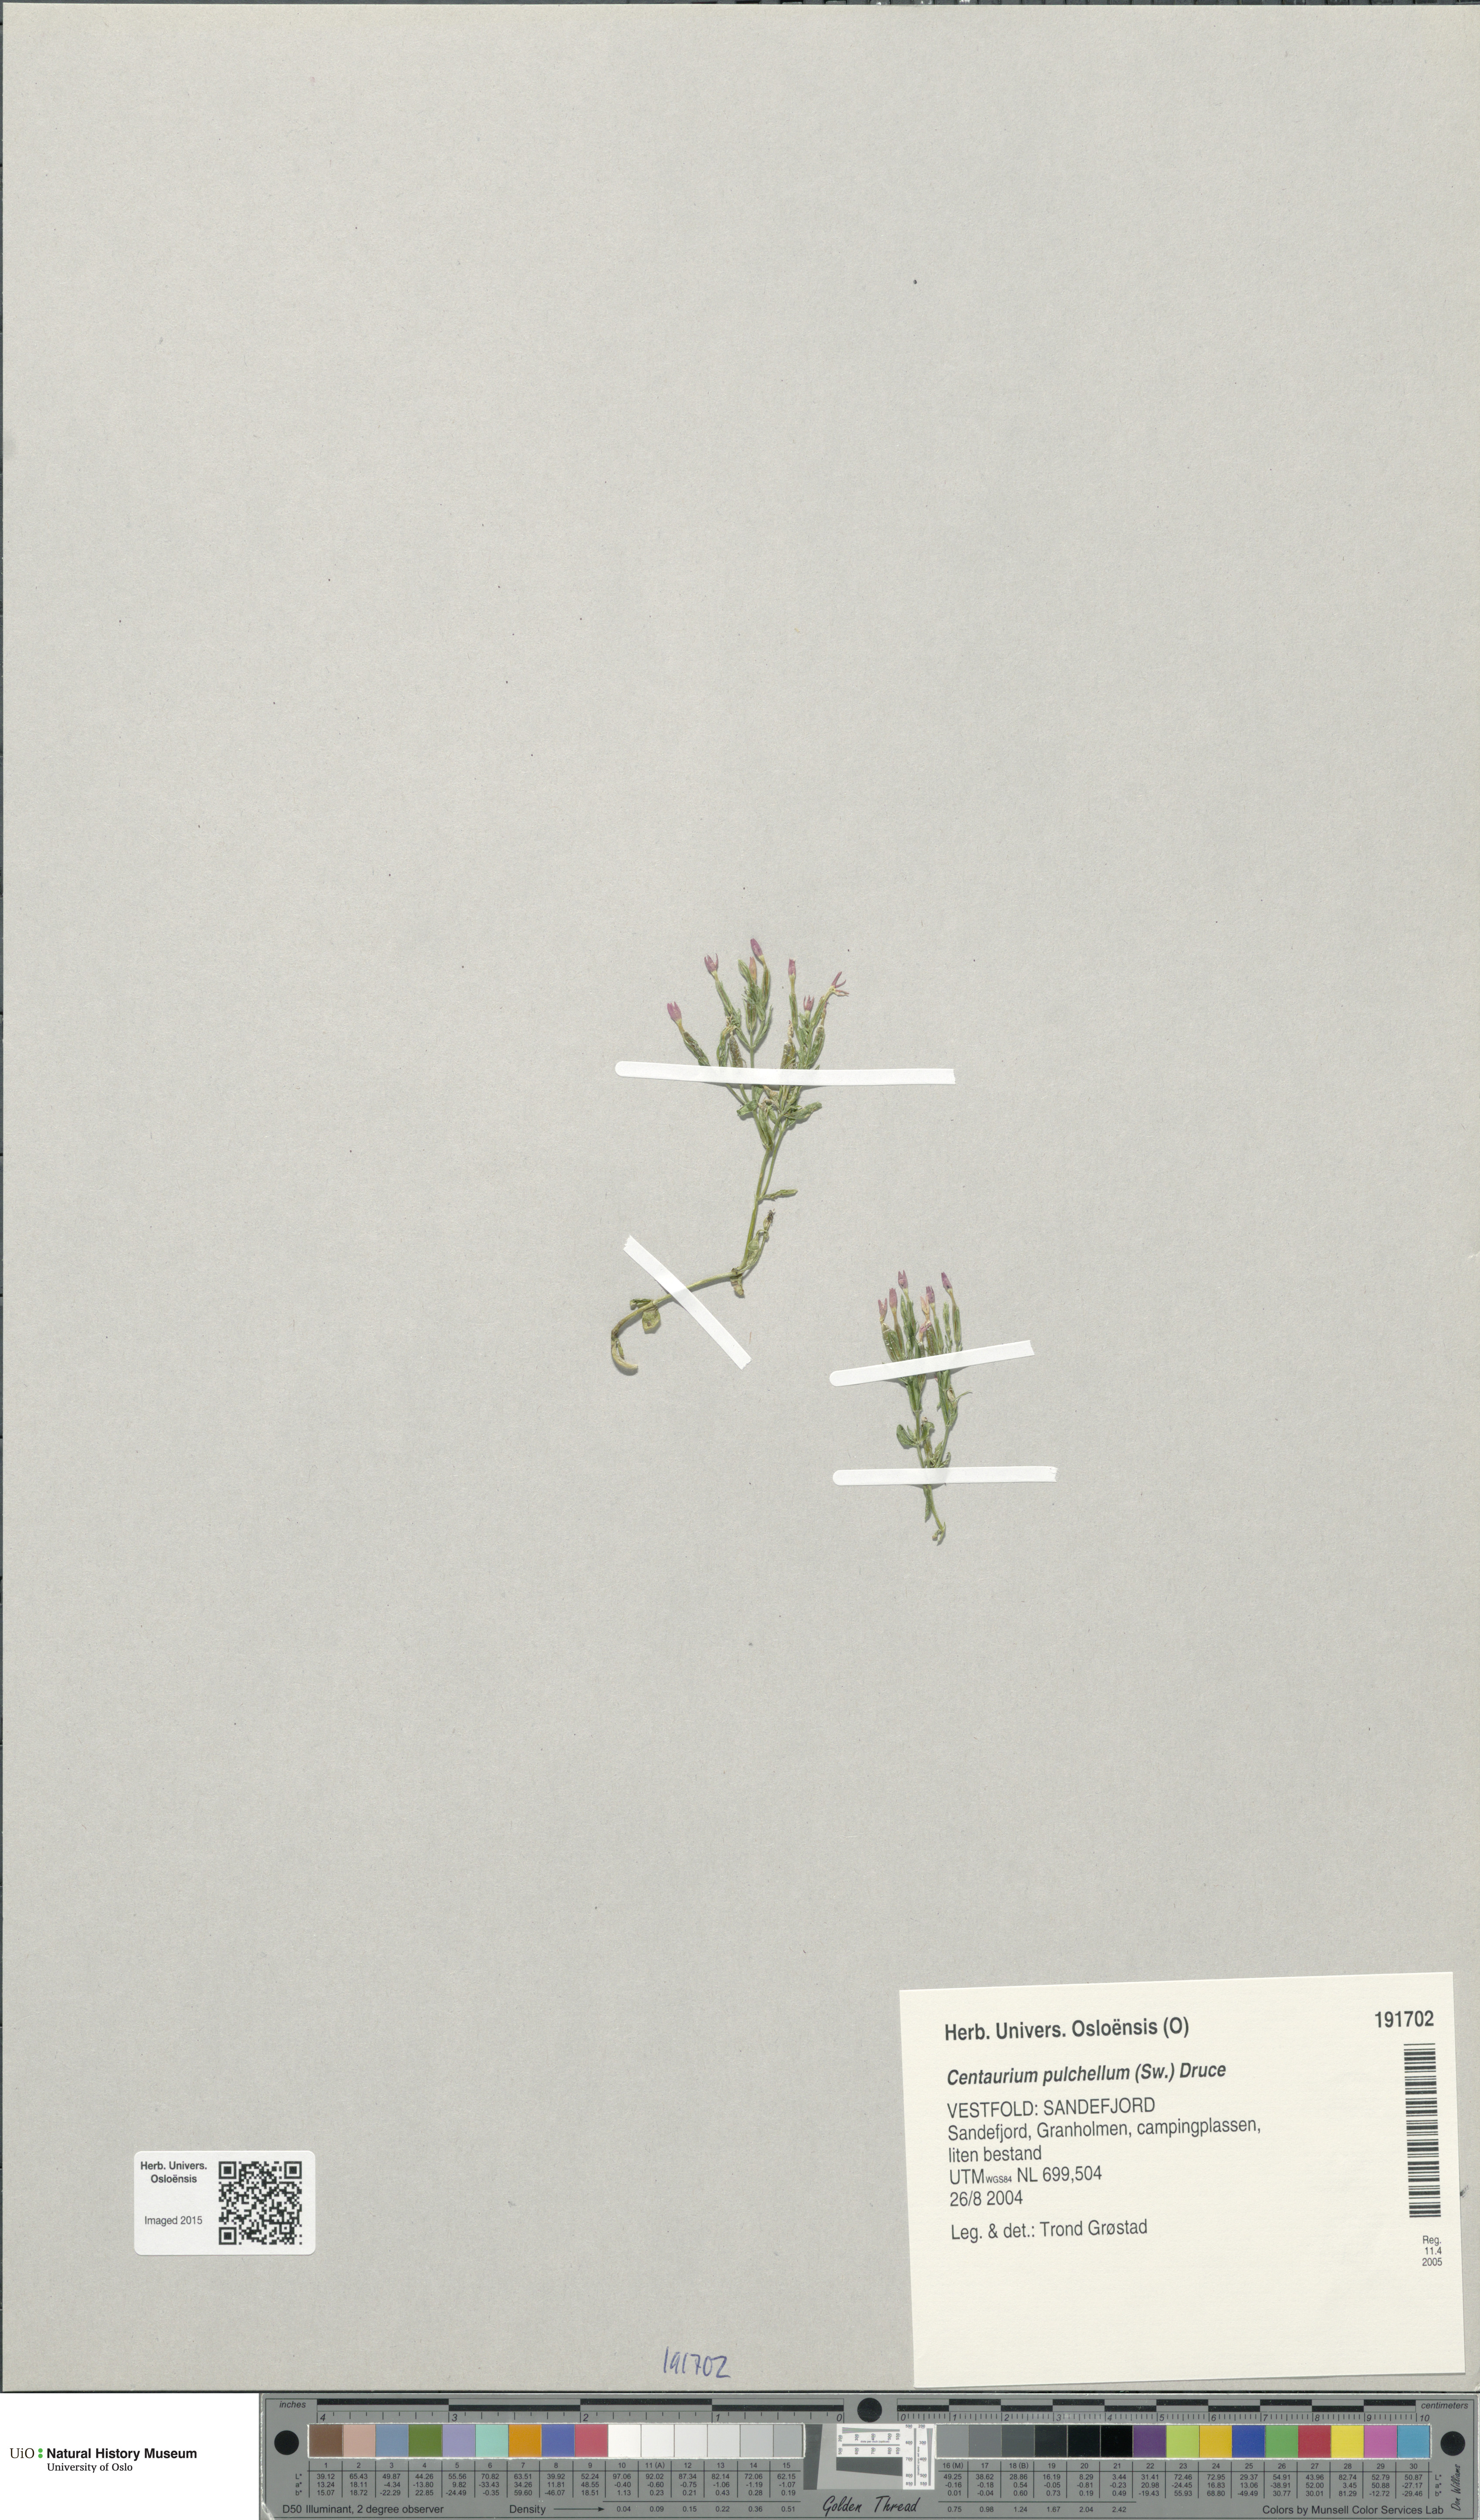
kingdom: Plantae
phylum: Tracheophyta
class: Magnoliopsida
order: Gentianales
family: Gentianaceae
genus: Centaurium
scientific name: Centaurium pulchellum
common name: Lesser centaury
